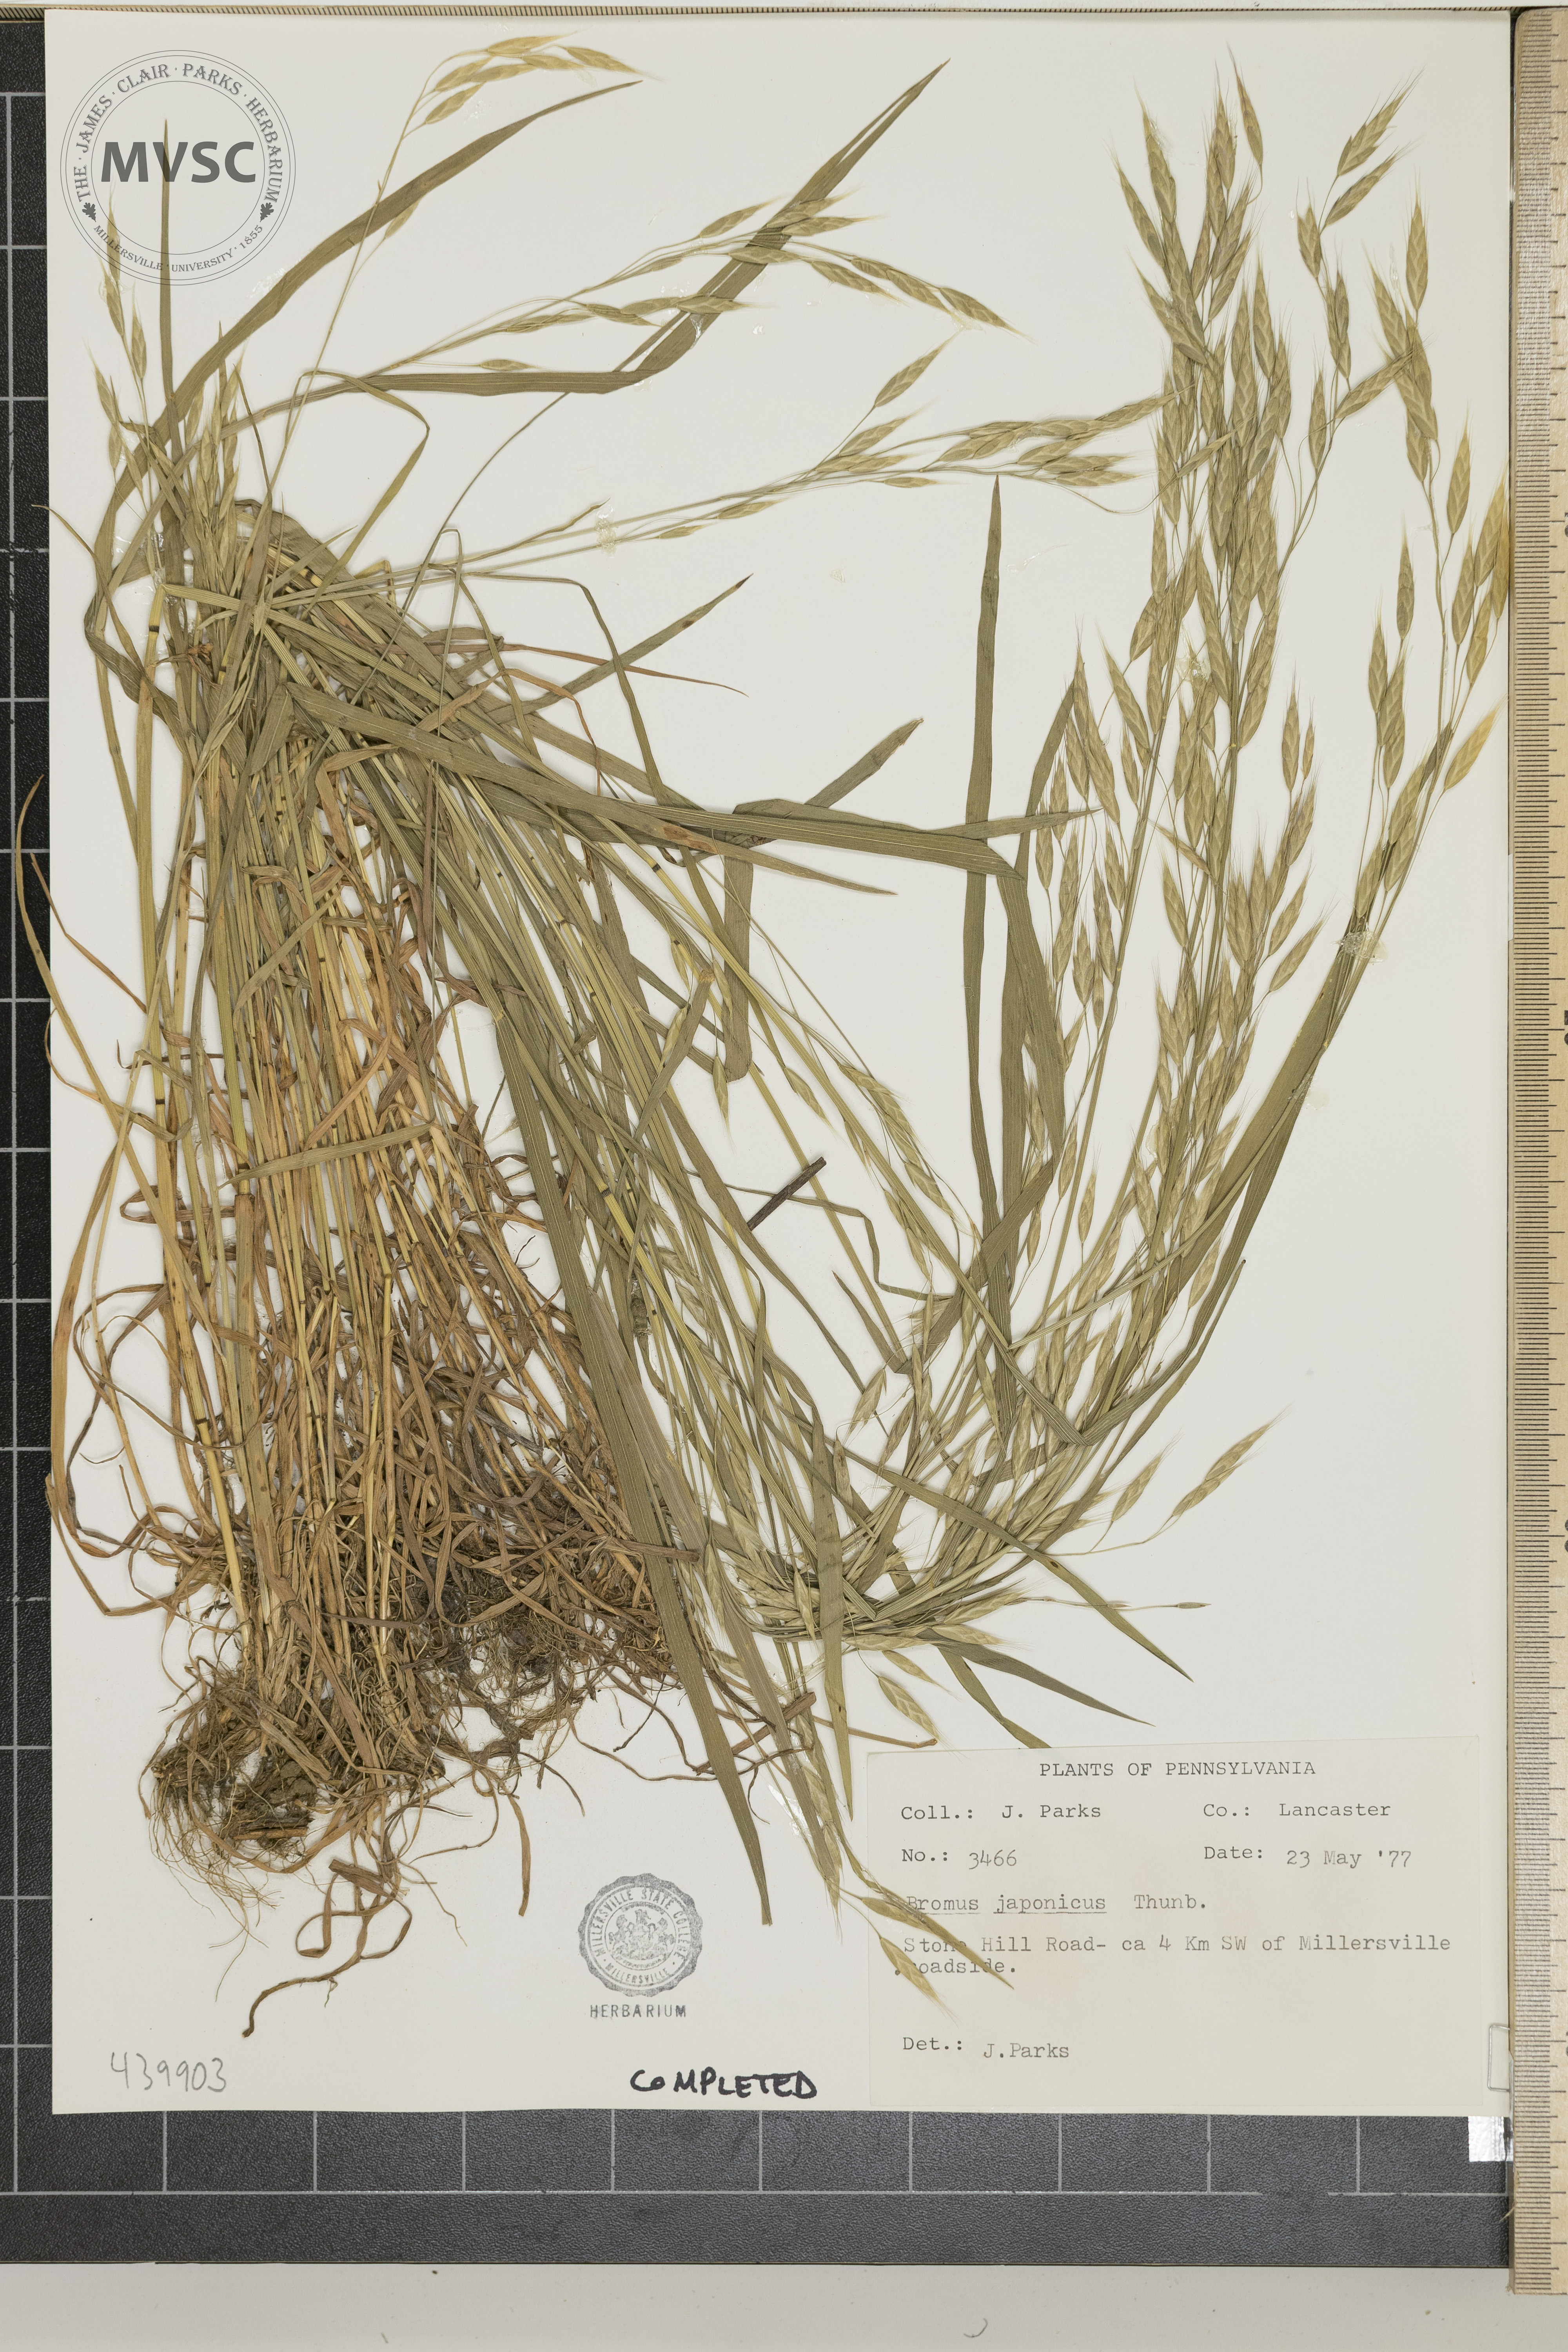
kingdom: Plantae
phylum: Tracheophyta
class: Liliopsida
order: Poales
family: Poaceae
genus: Bromus
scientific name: Bromus japonicus
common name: Japanese brome
